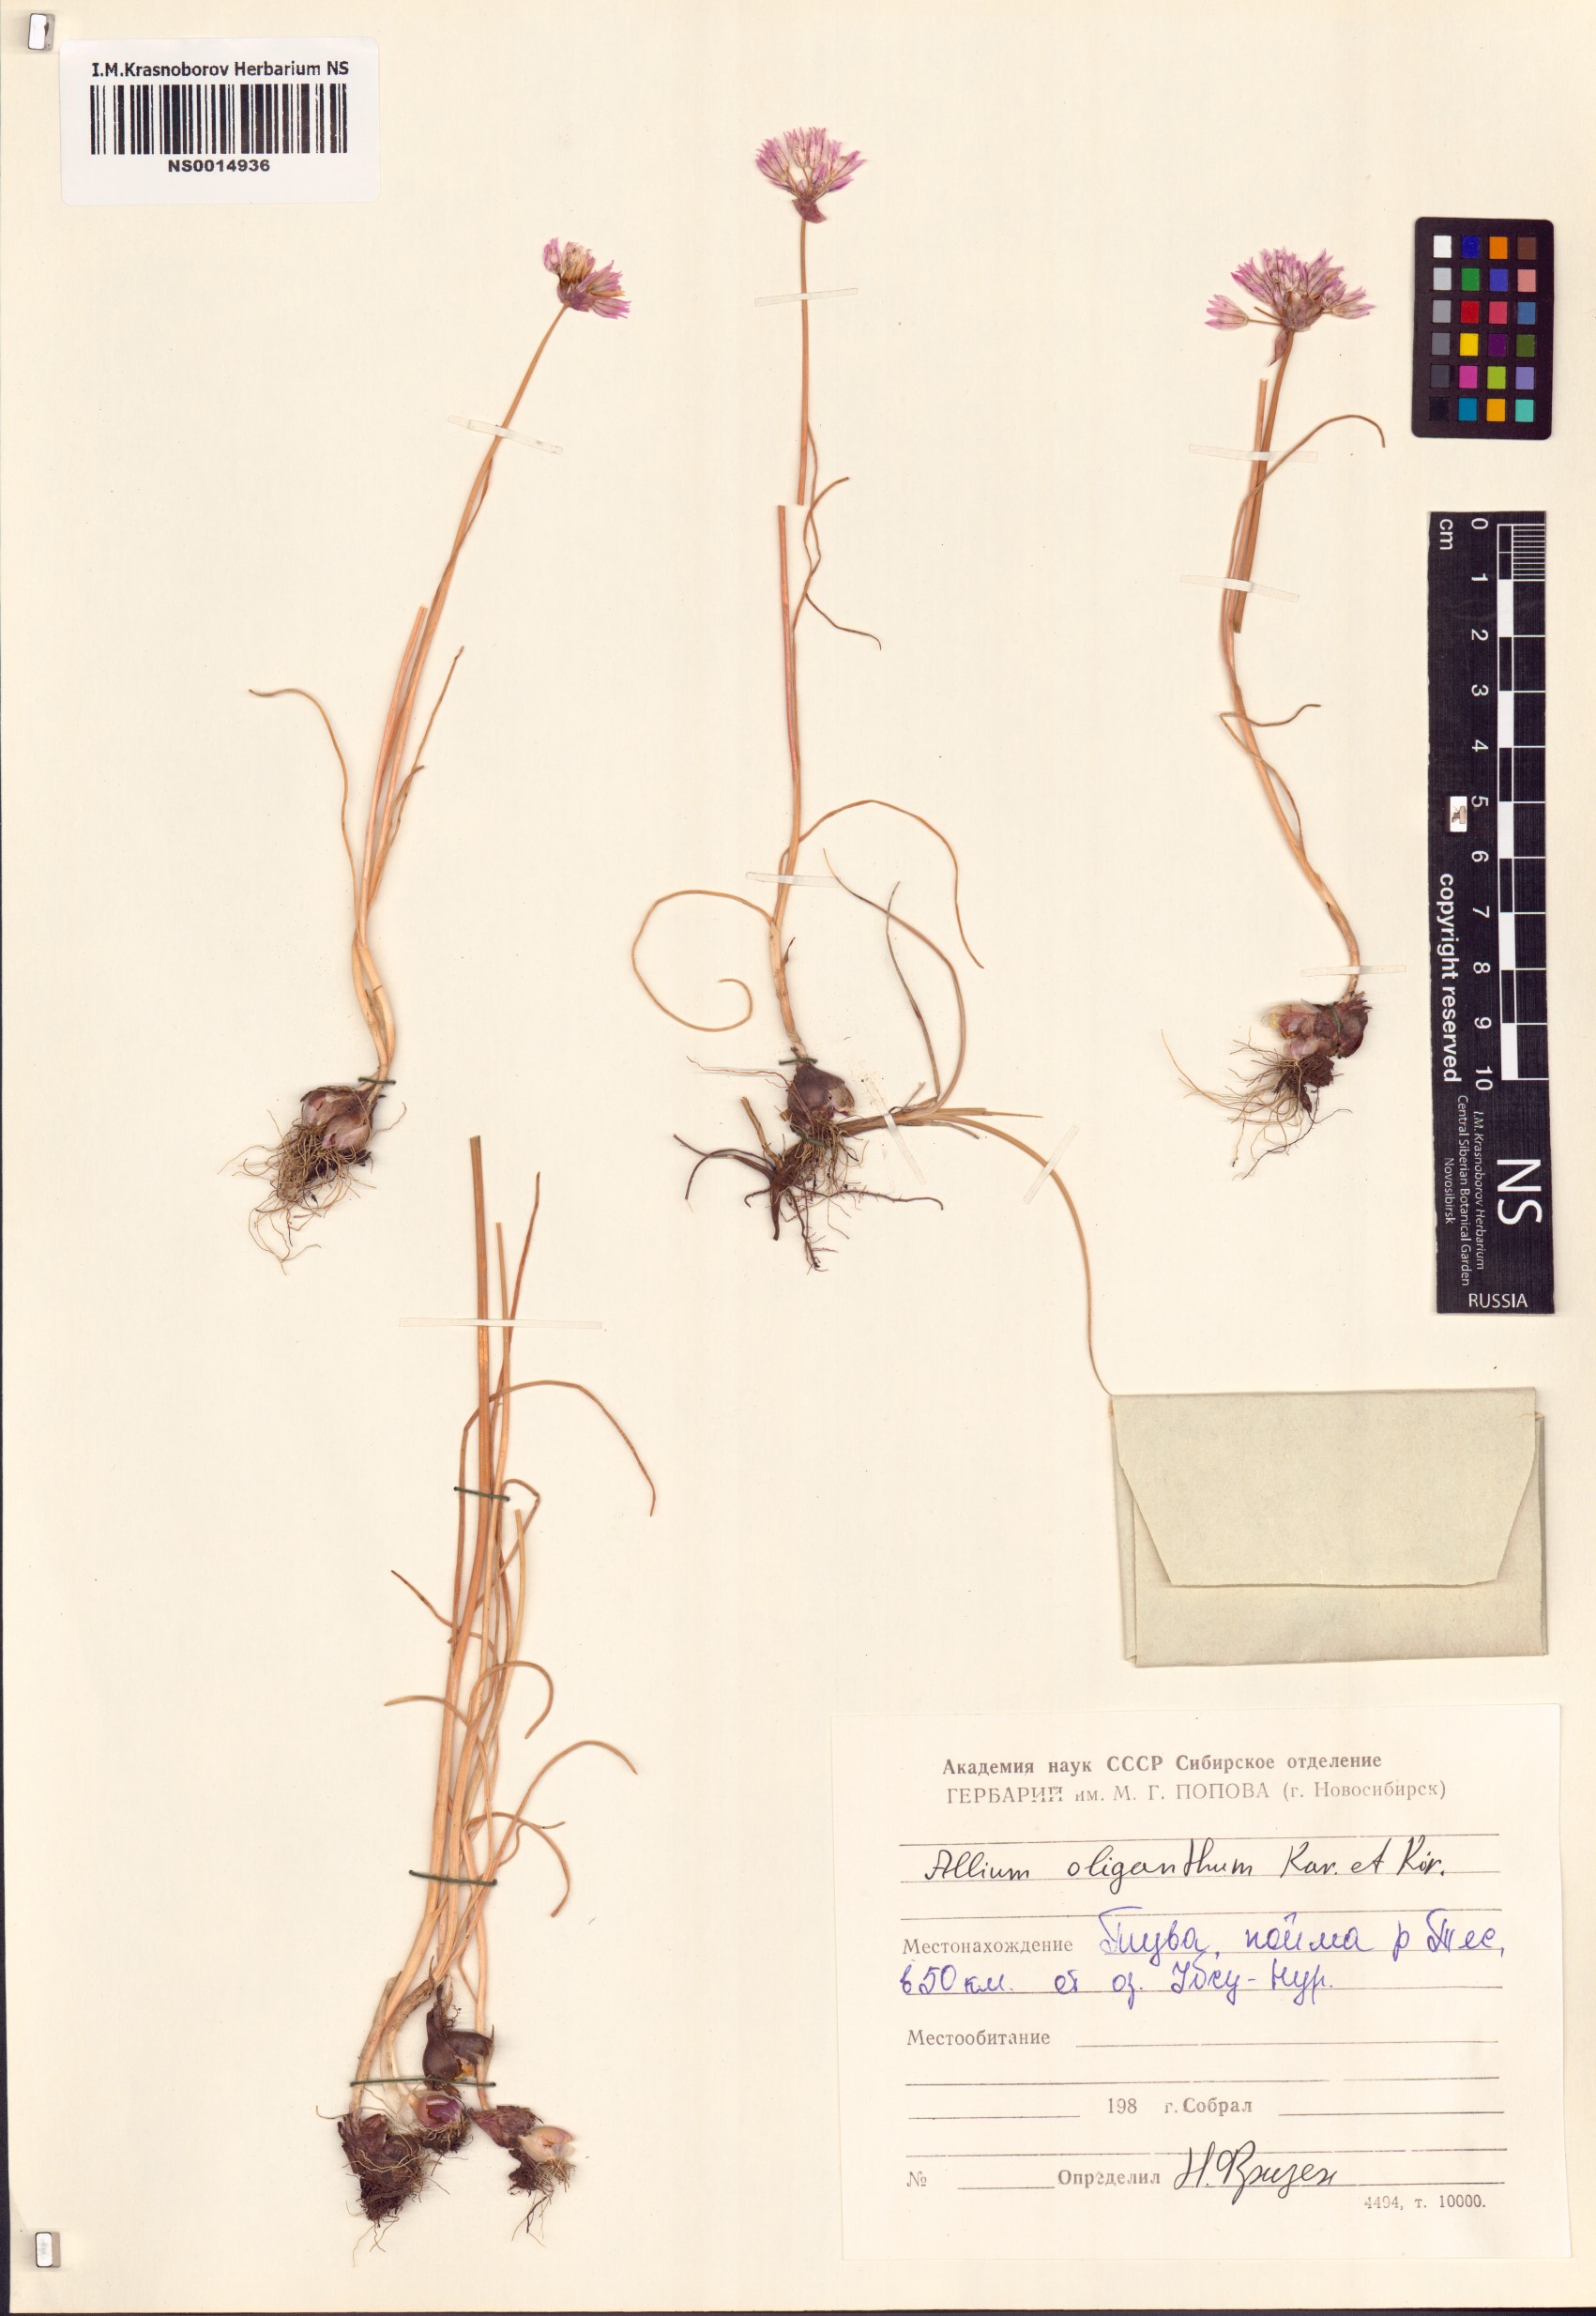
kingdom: Plantae
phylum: Tracheophyta
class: Liliopsida
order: Asparagales
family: Amaryllidaceae
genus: Allium
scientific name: Allium oliganthum
